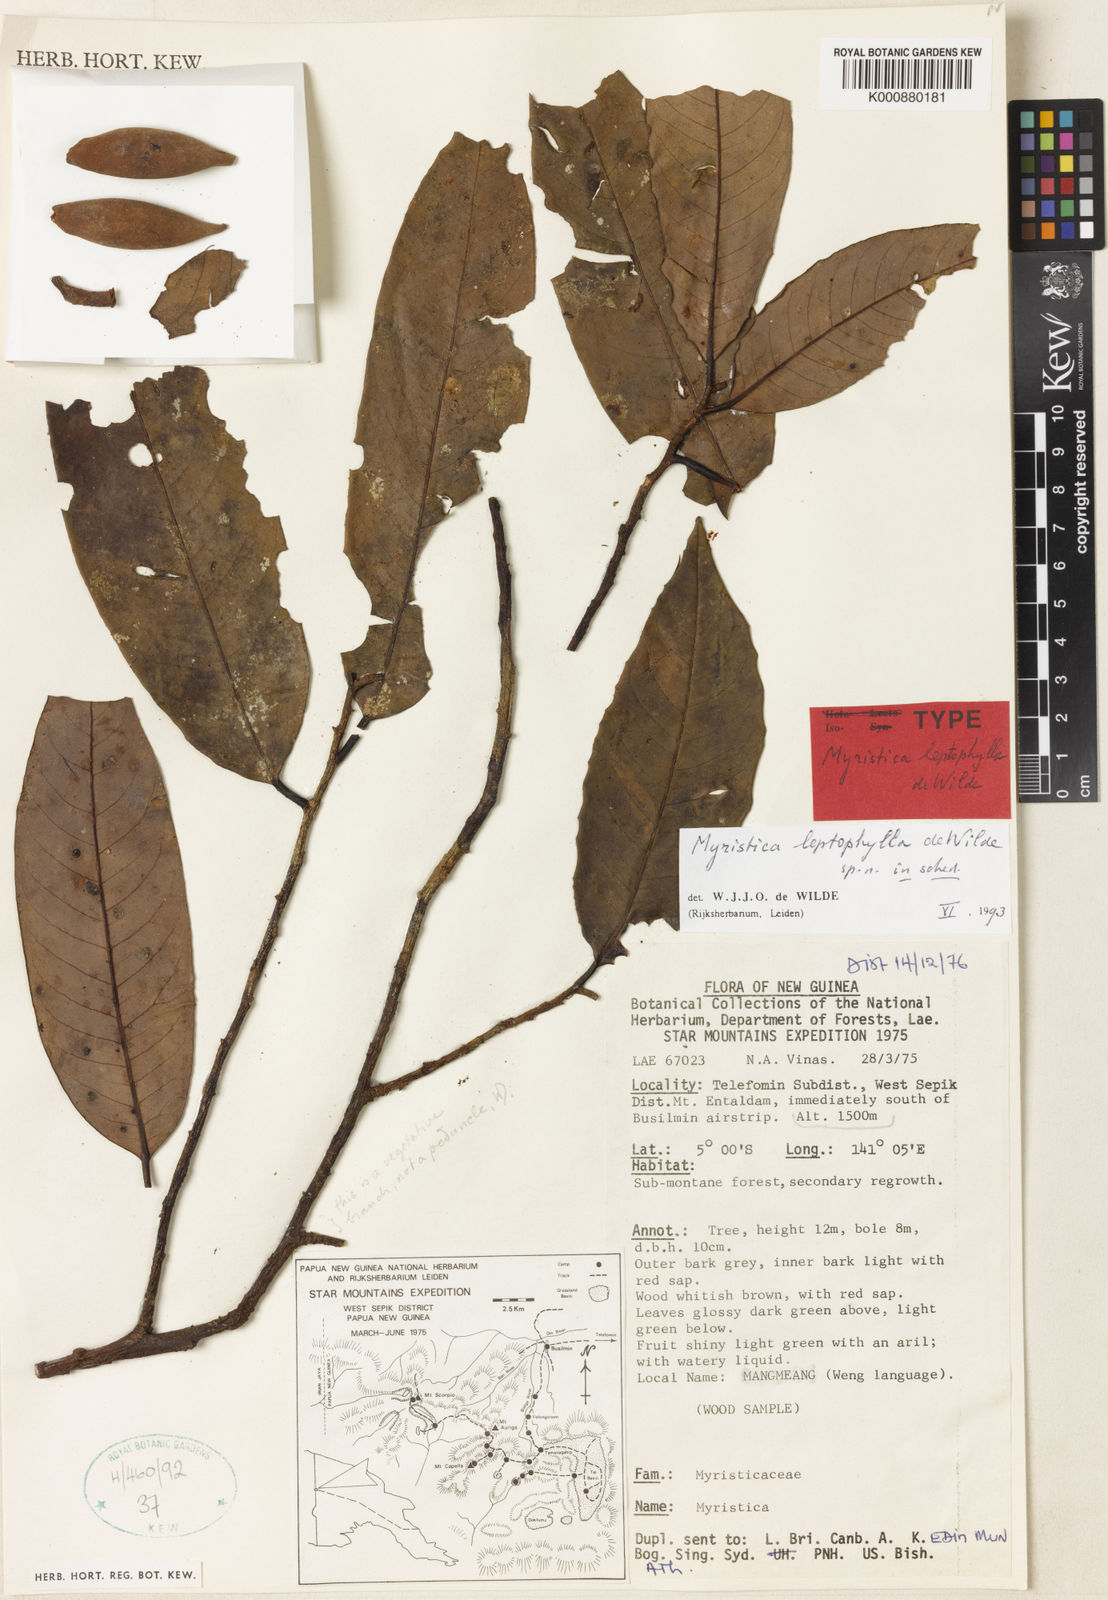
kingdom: Plantae
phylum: Tracheophyta
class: Magnoliopsida
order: Magnoliales
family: Myristicaceae
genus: Myristica
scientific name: Myristica leptophylla
